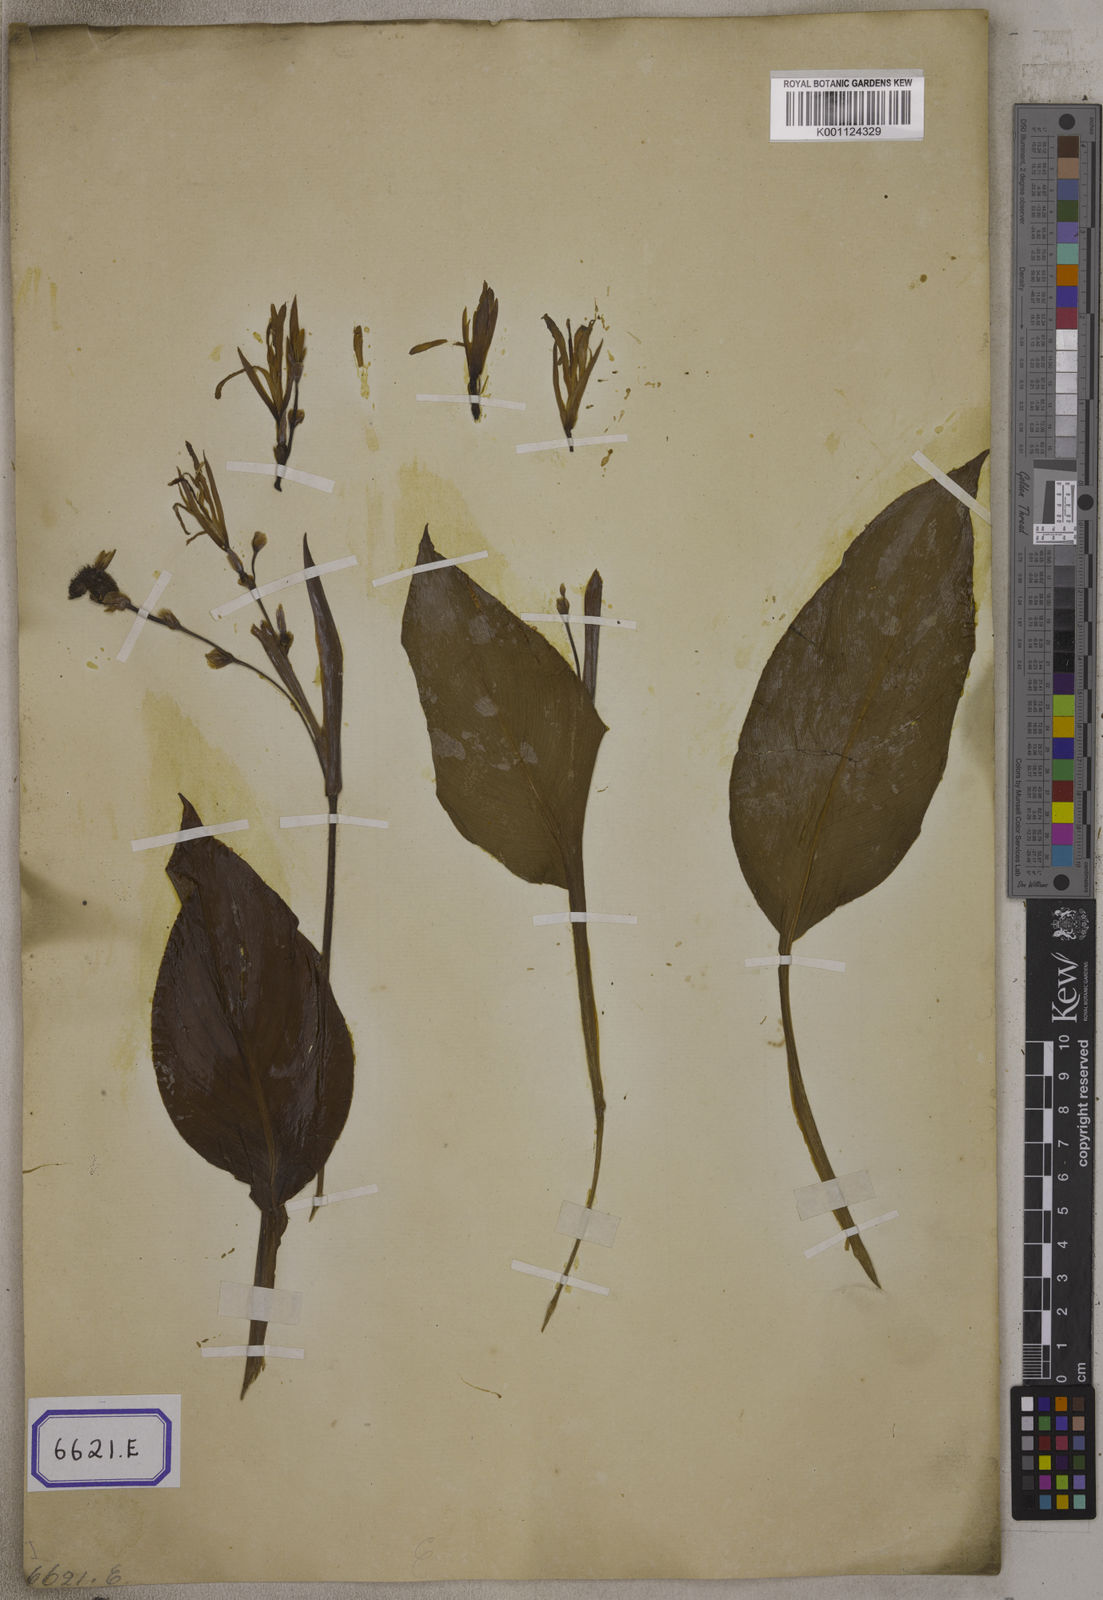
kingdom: Plantae
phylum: Tracheophyta
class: Liliopsida
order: Zingiberales
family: Cannaceae
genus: Canna
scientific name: Canna indica
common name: Indian shot
